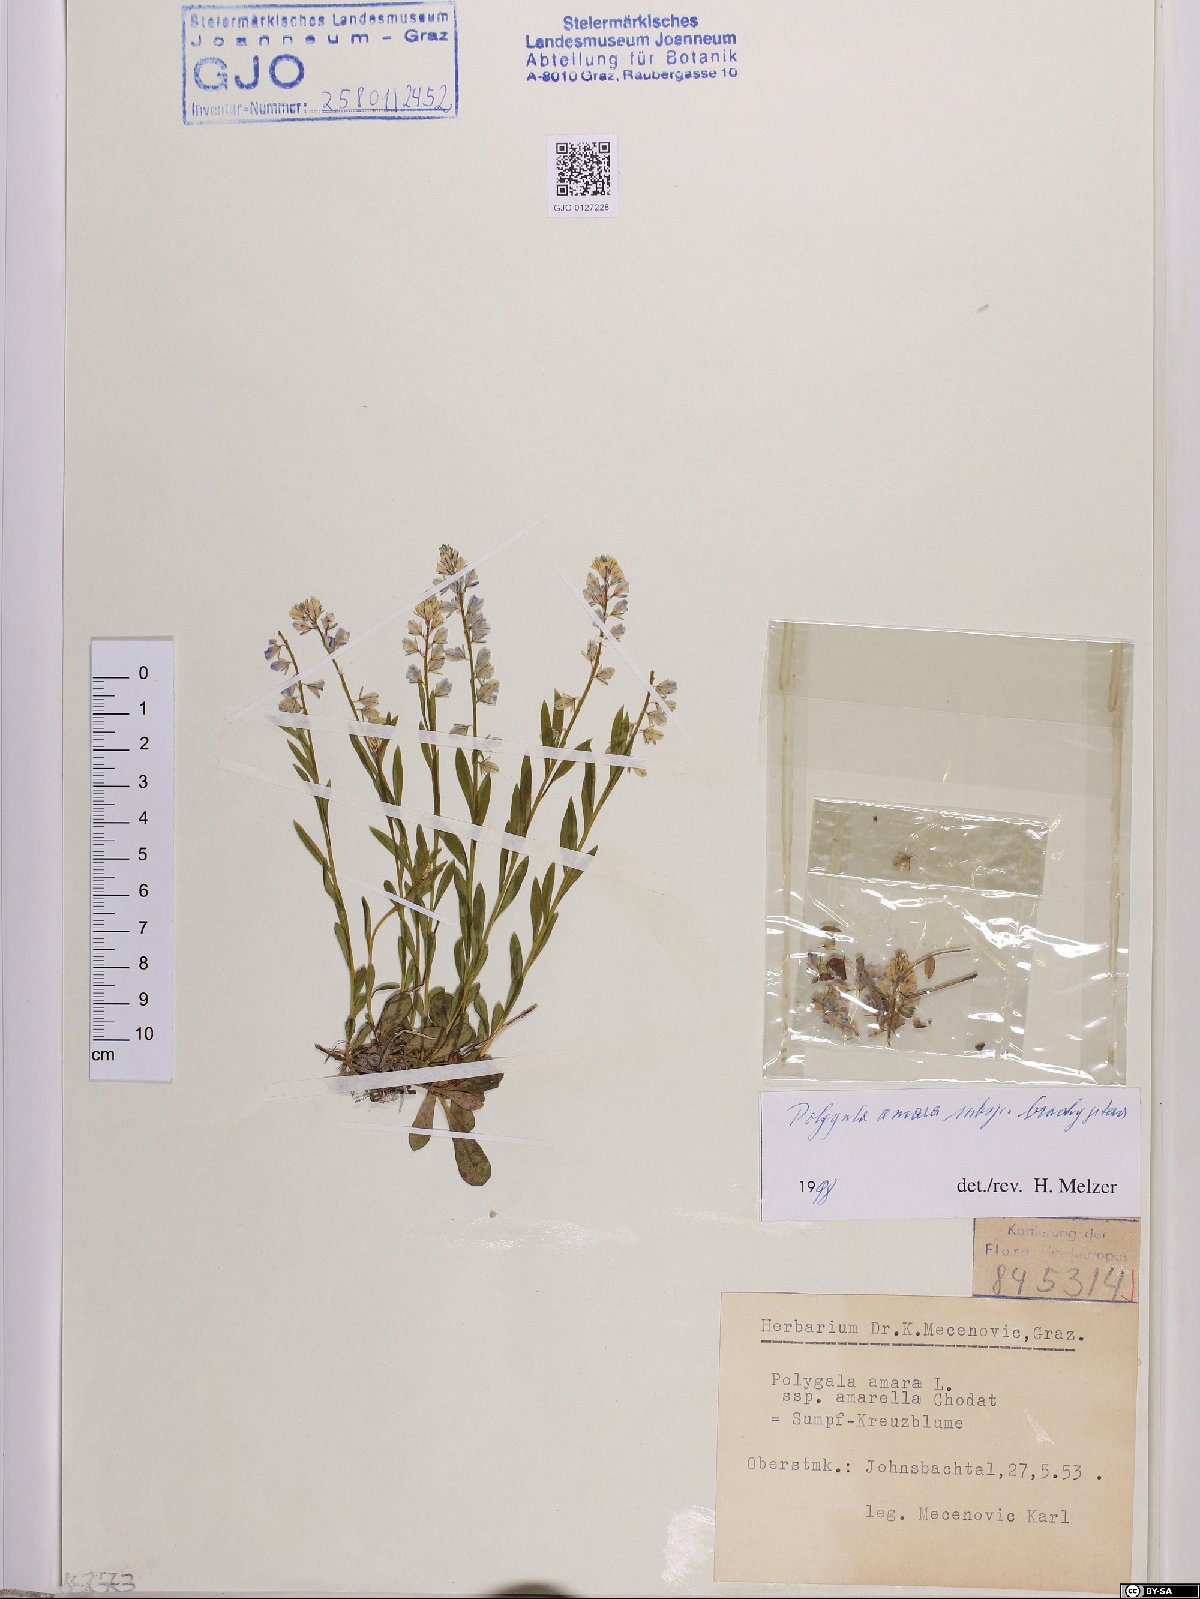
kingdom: Plantae
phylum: Tracheophyta
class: Magnoliopsida
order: Fabales
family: Polygalaceae
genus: Polygala
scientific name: Polygala amara
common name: Milkwort
